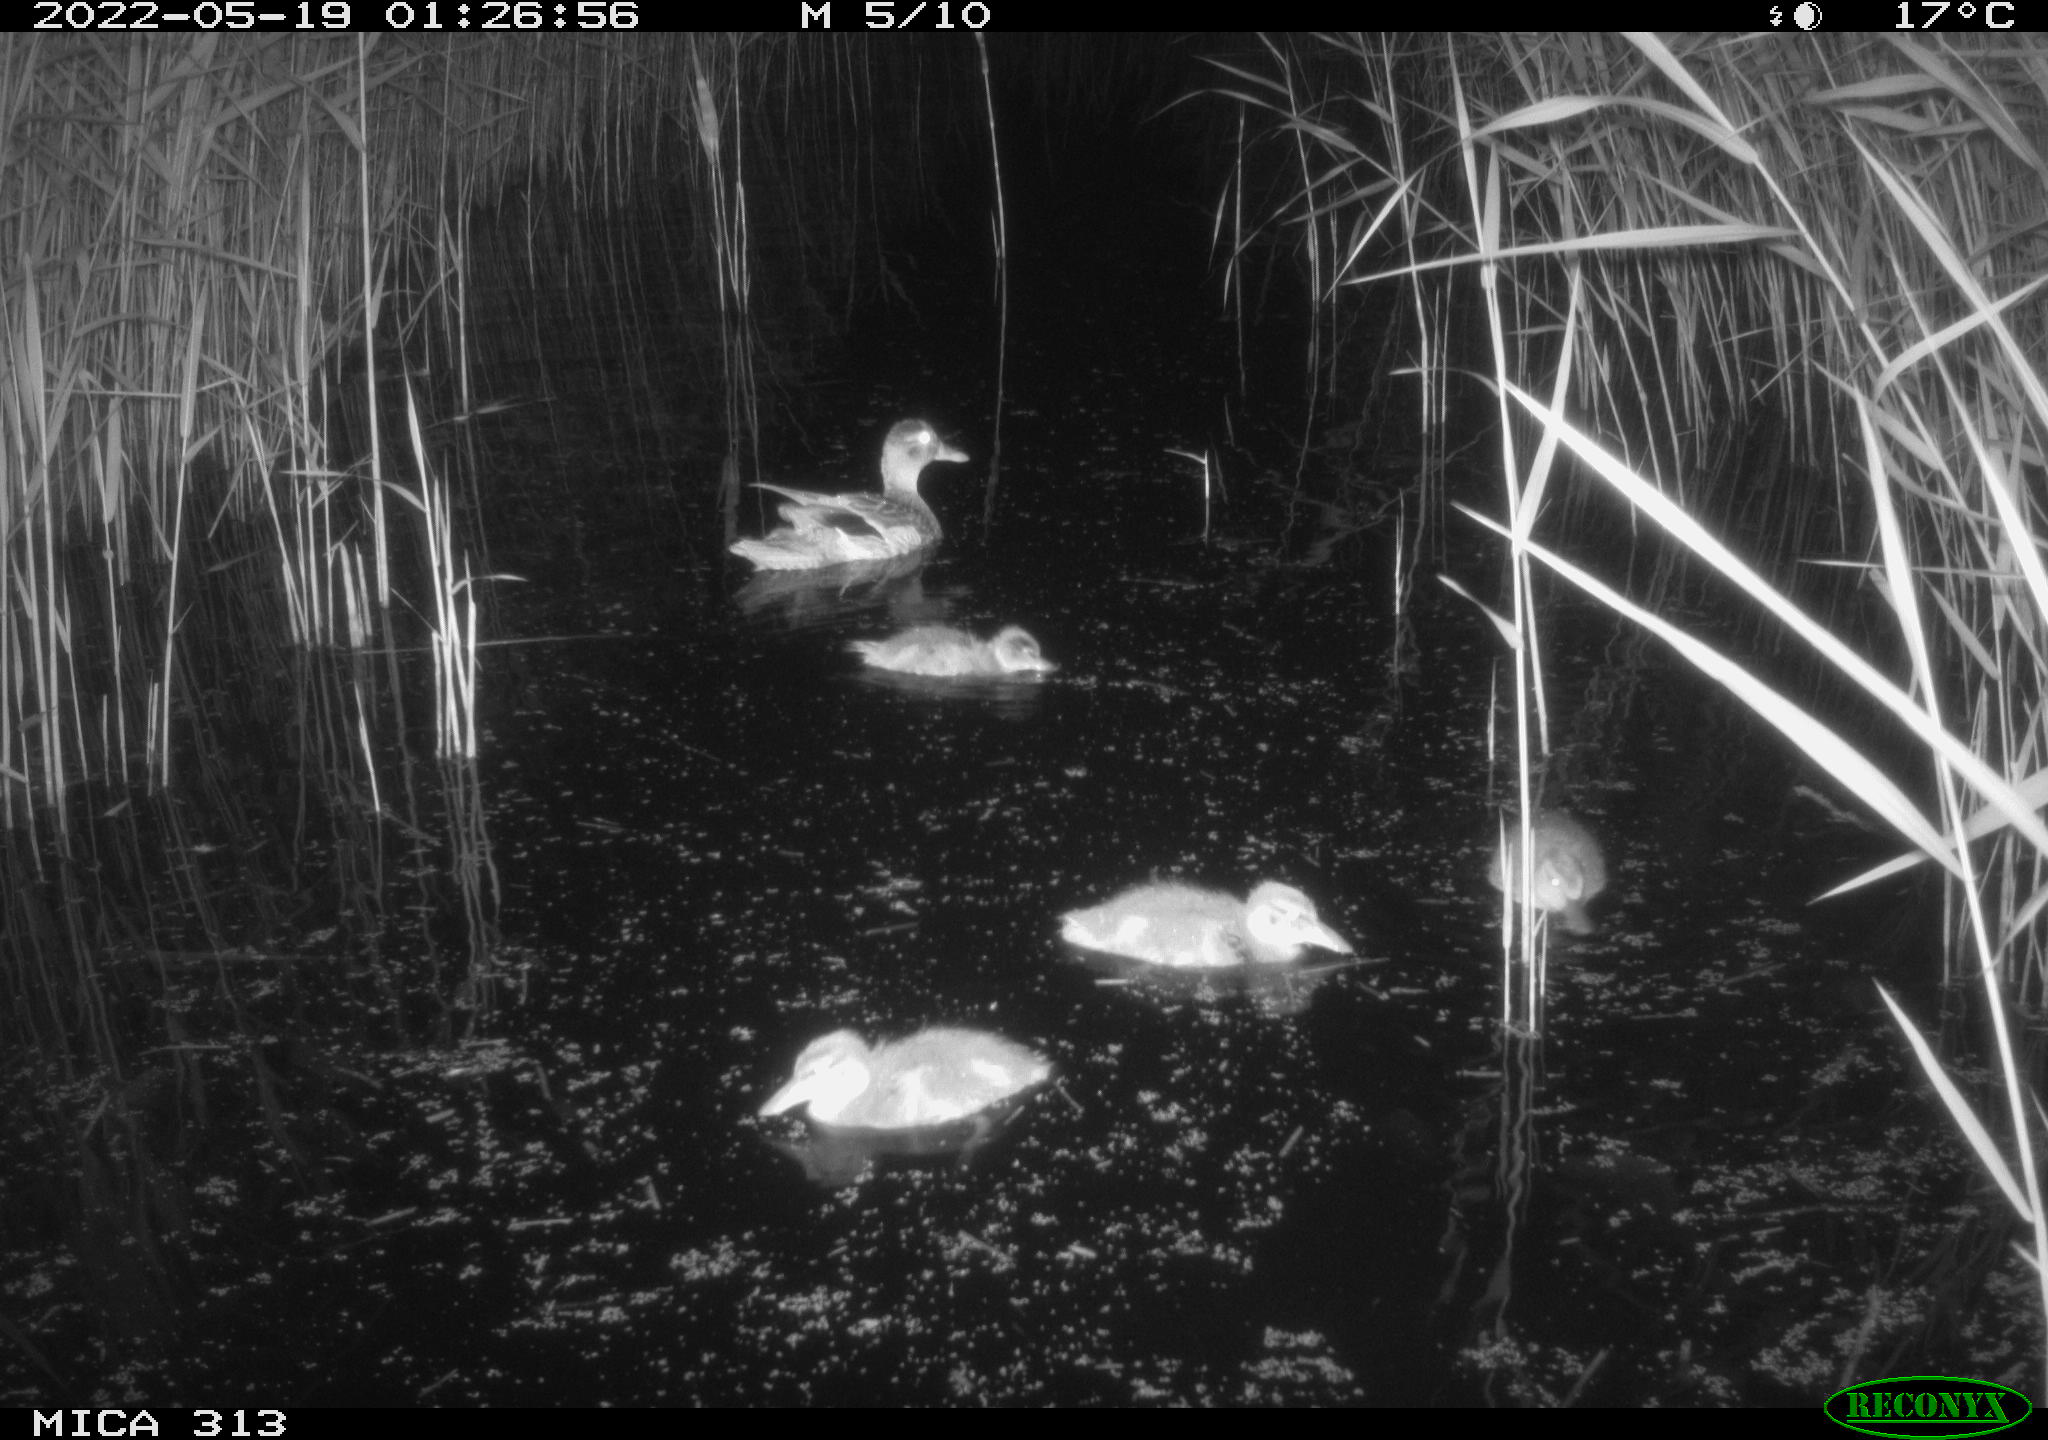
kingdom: Animalia
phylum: Chordata
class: Aves
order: Anseriformes
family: Anatidae
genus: Anas
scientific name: Anas platyrhynchos
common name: Mallard
